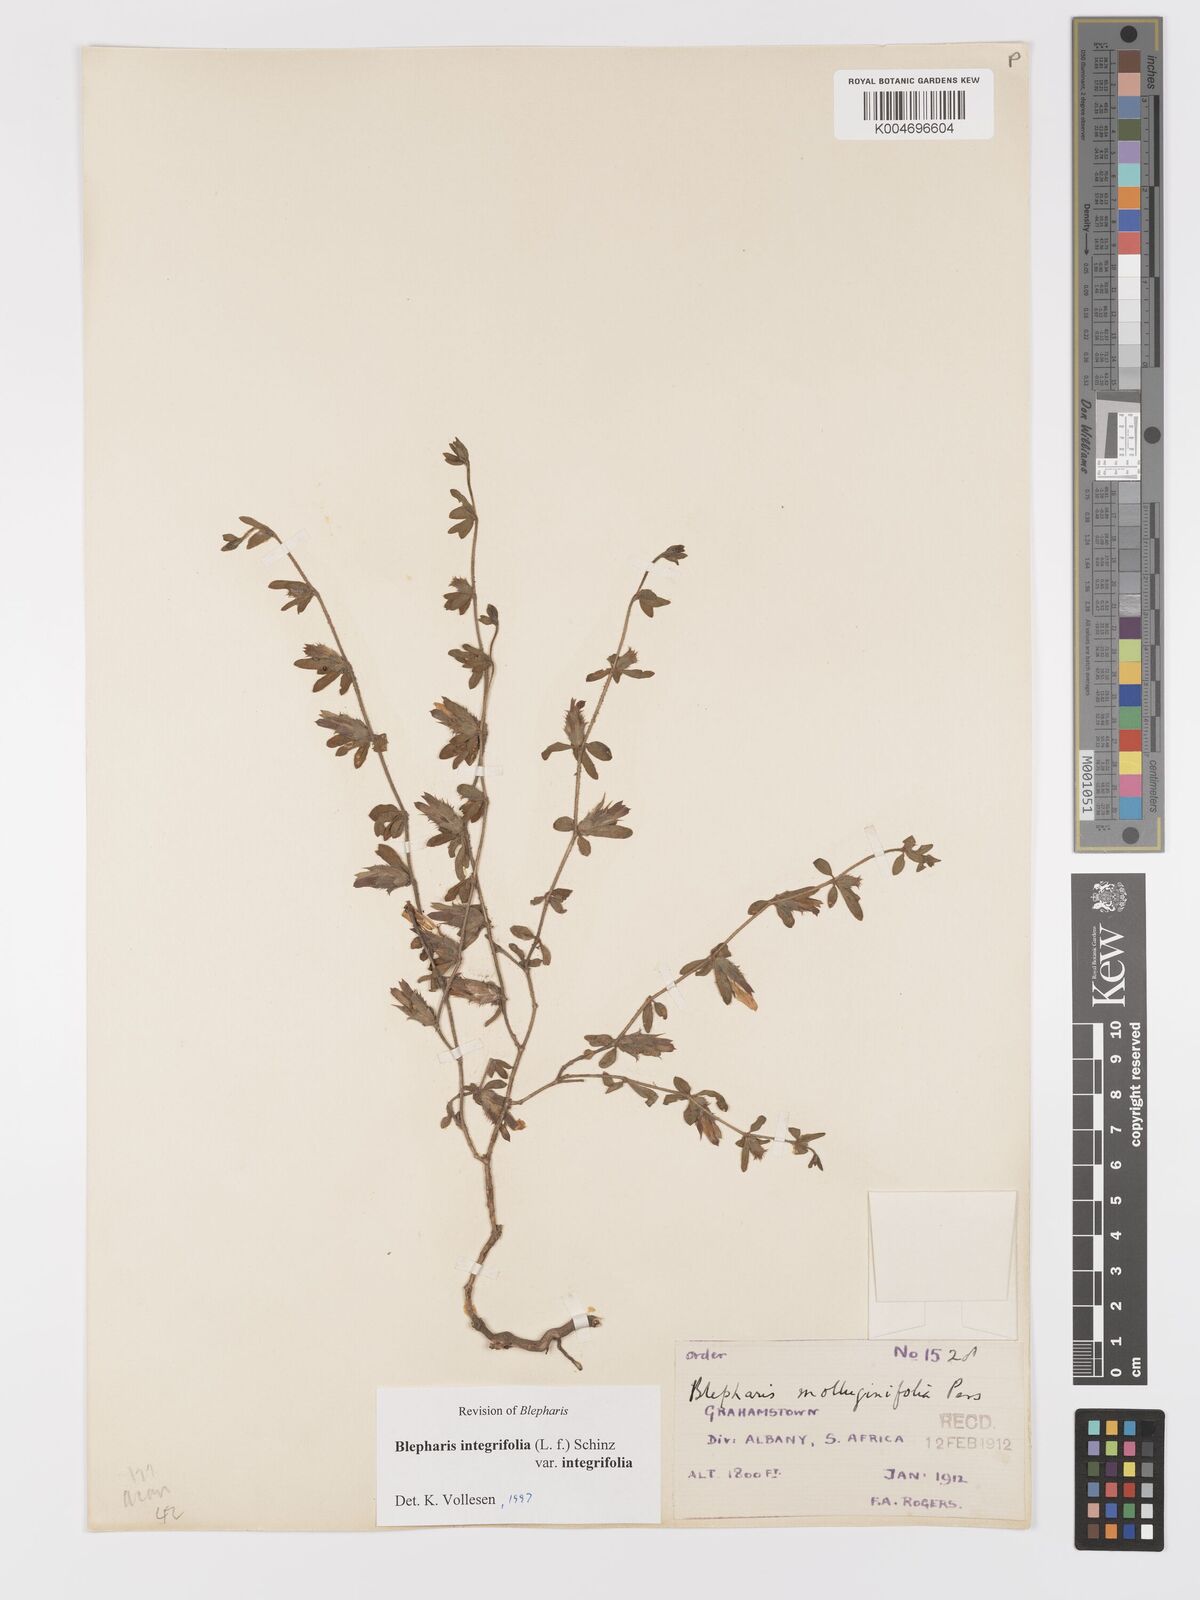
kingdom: Plantae
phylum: Tracheophyta
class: Magnoliopsida
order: Lamiales
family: Acanthaceae
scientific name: Acanthaceae
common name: Acanthaceae
